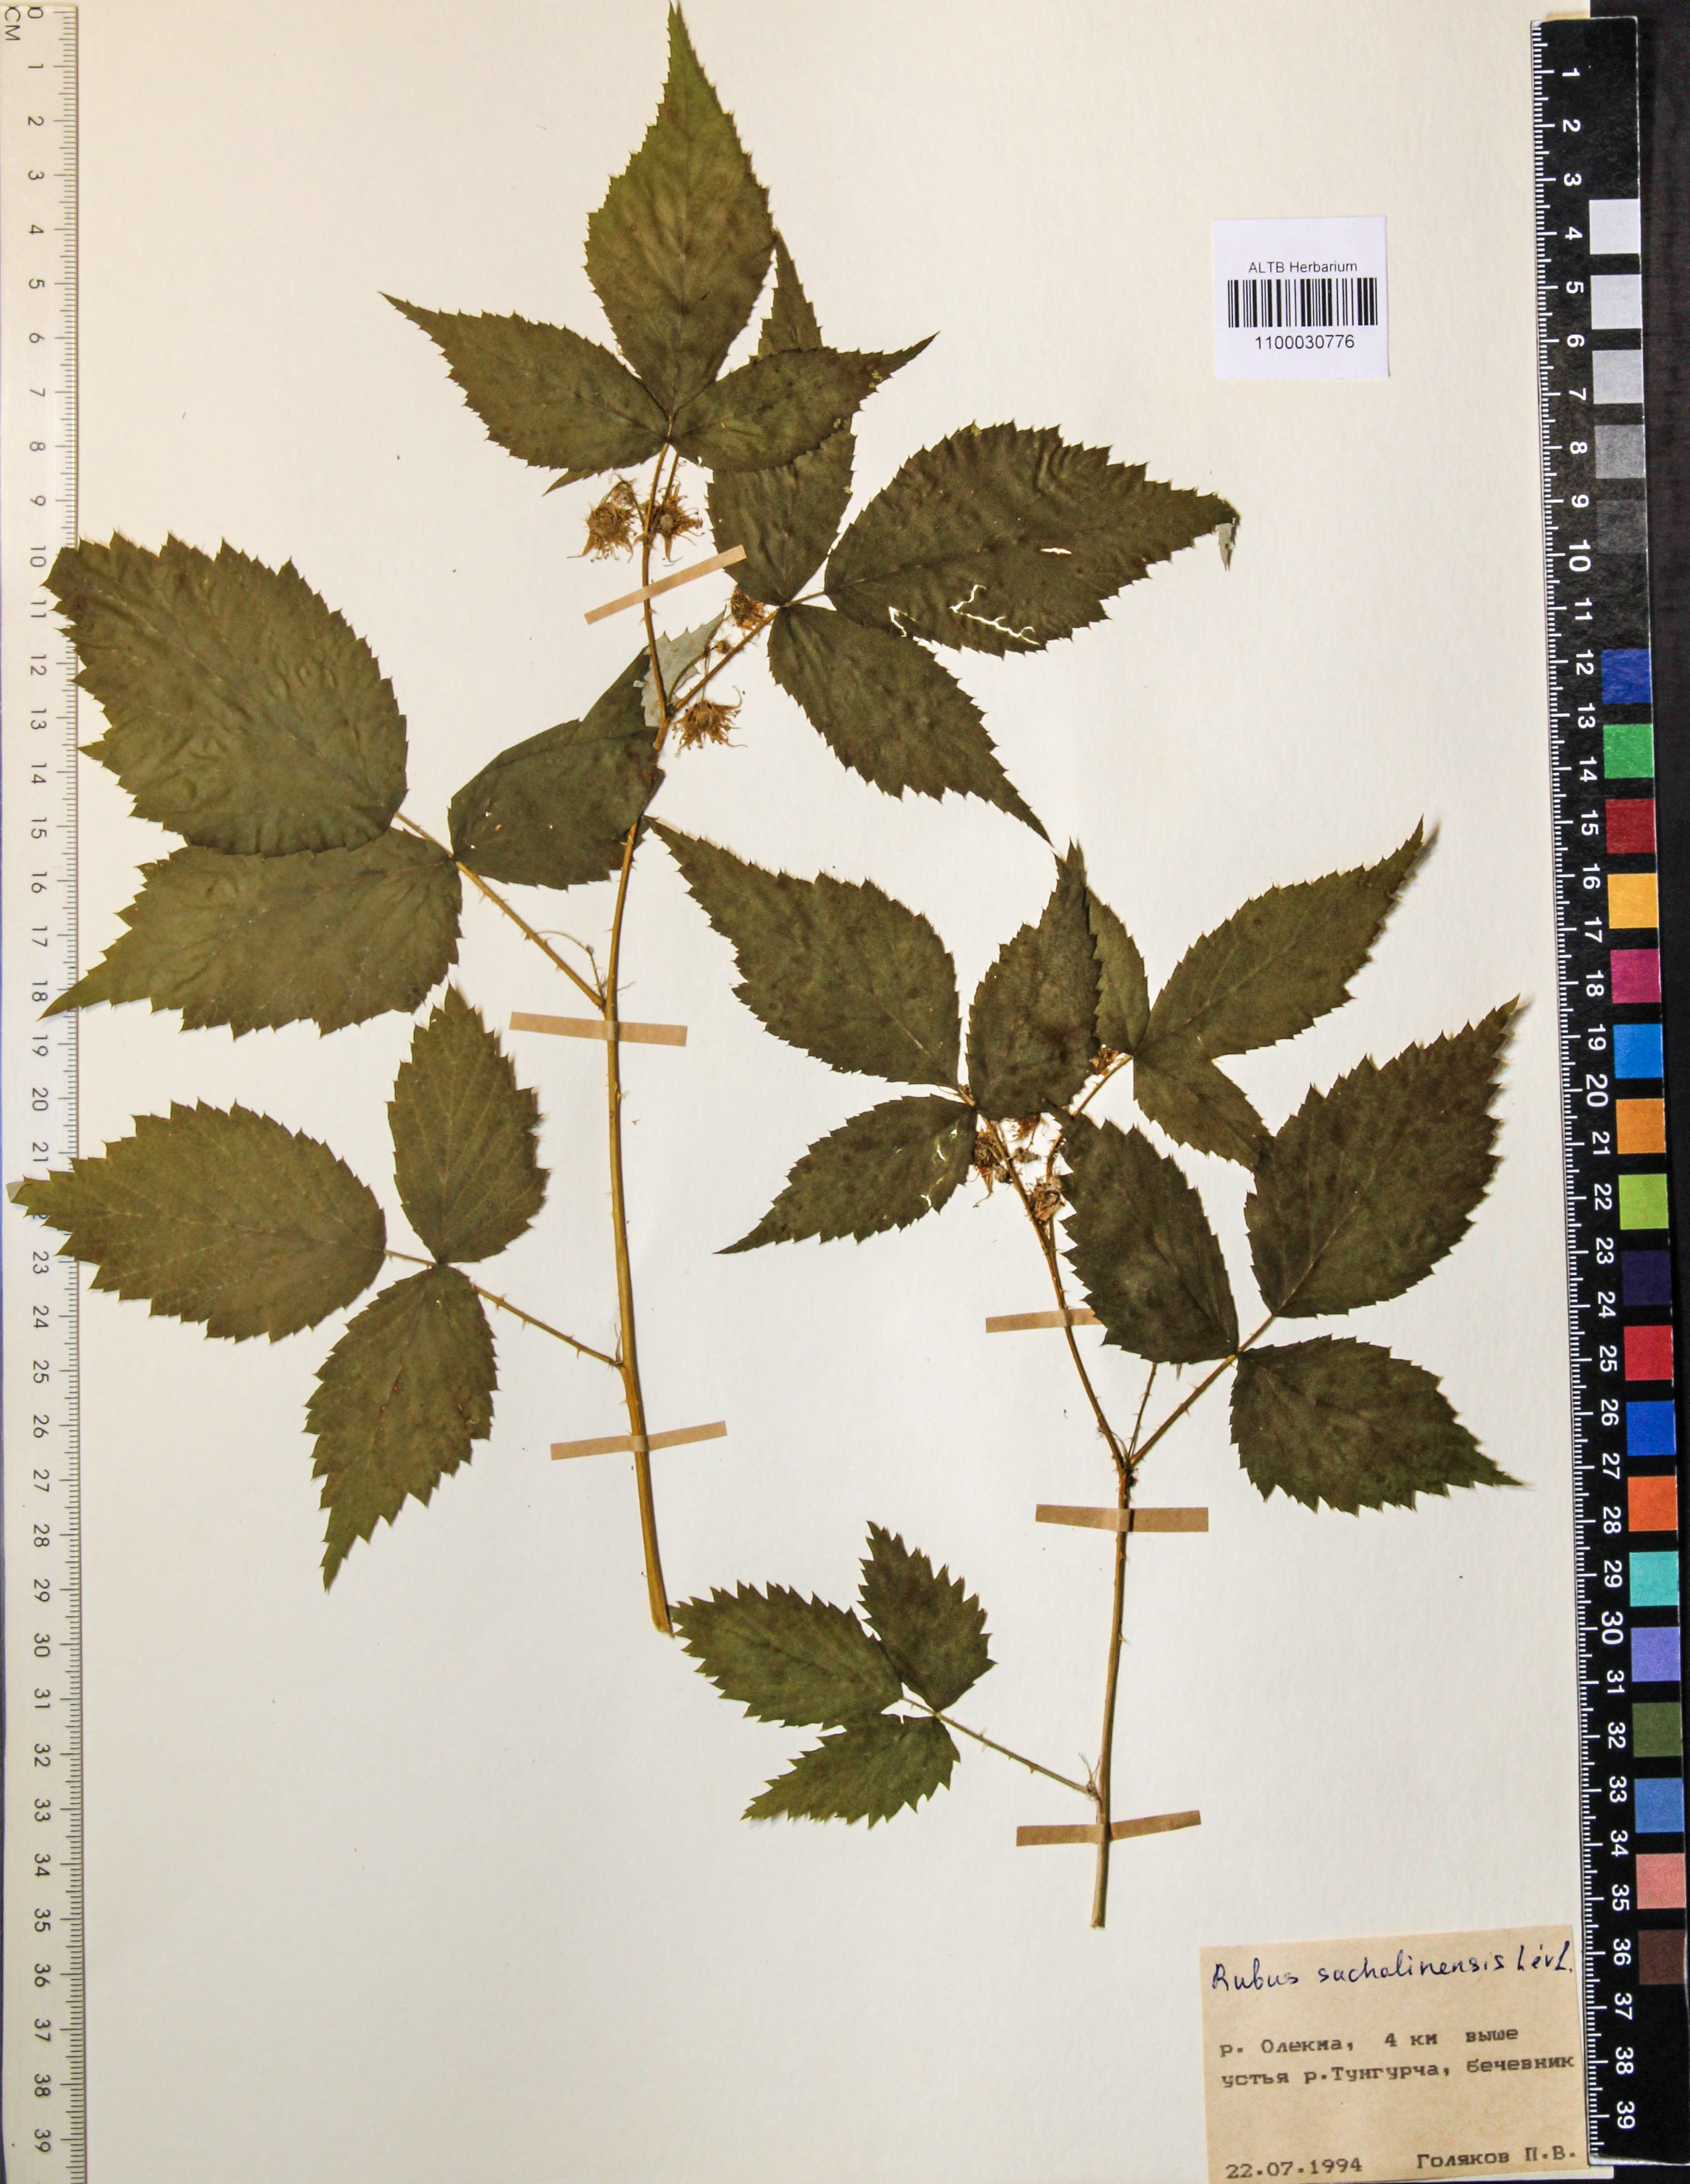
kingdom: Plantae
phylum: Tracheophyta
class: Magnoliopsida
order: Rosales
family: Rosaceae
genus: Rubus
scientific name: Rubus sachalinensis
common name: Red raspberry
